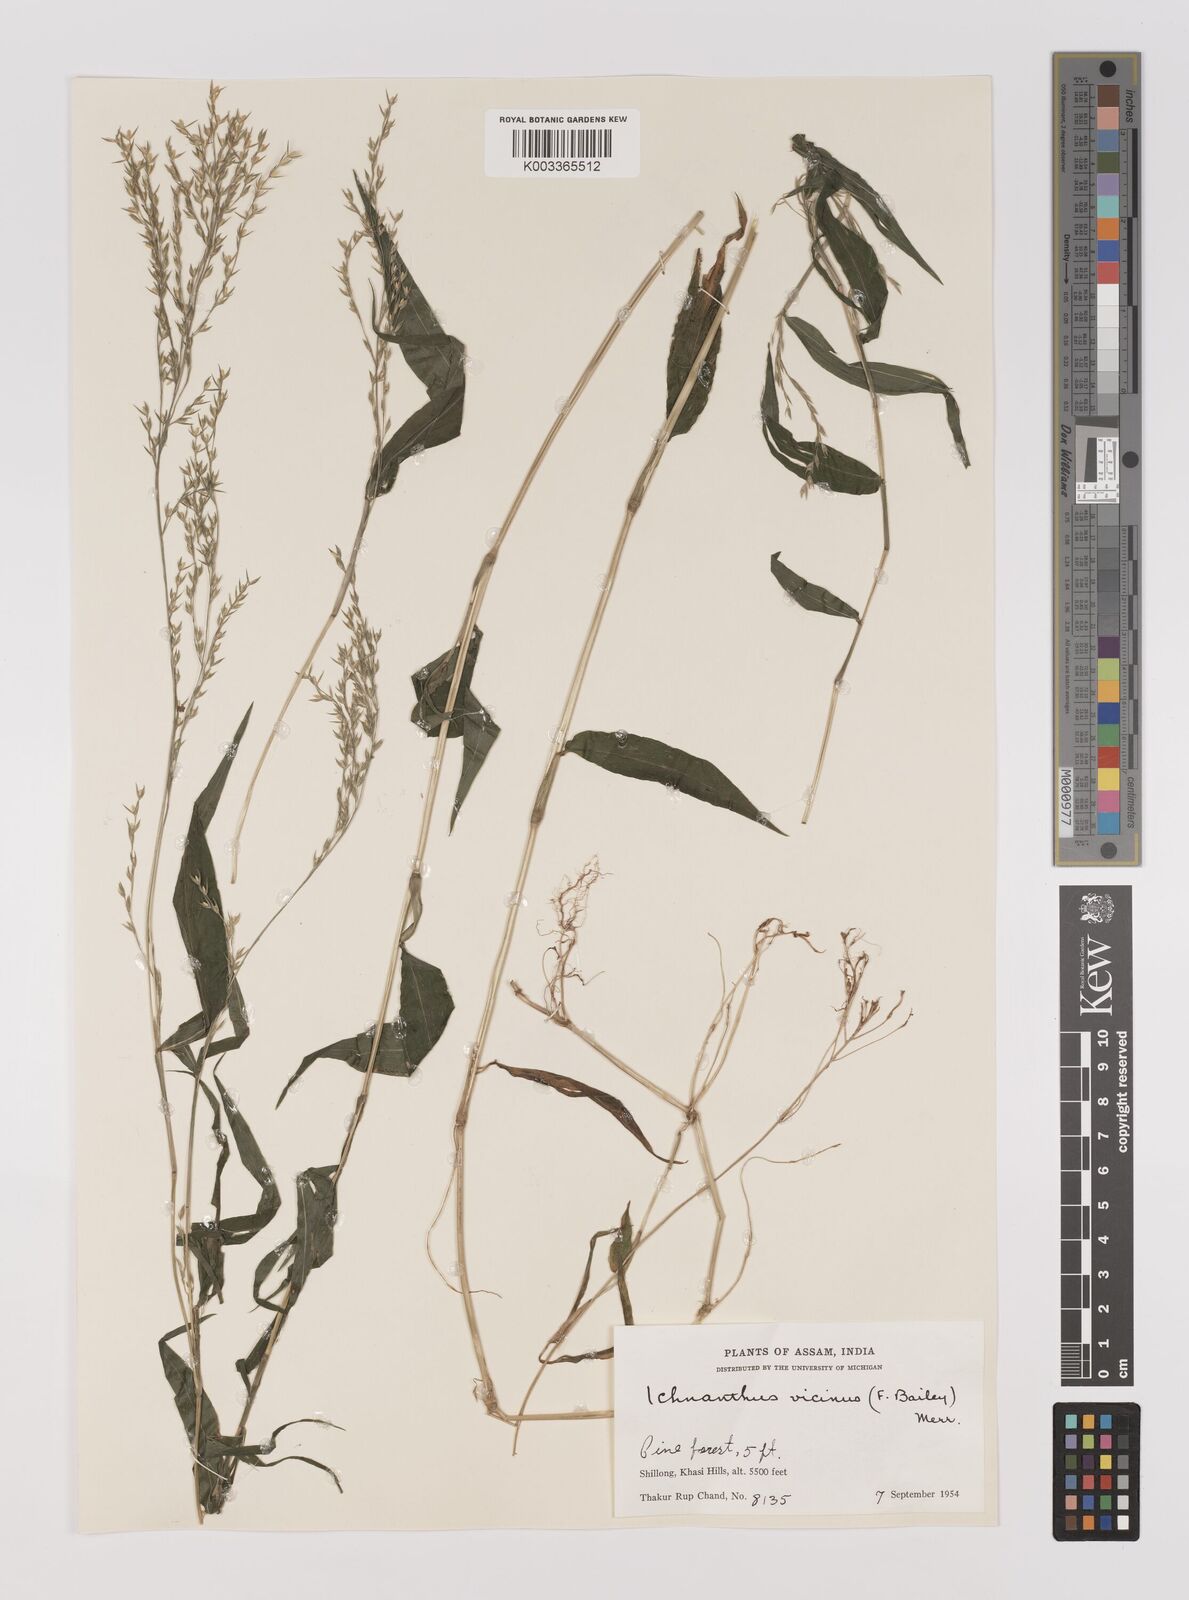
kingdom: Plantae
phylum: Tracheophyta
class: Liliopsida
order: Poales
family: Poaceae
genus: Ichnanthus
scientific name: Ichnanthus pallens
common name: Water grass
